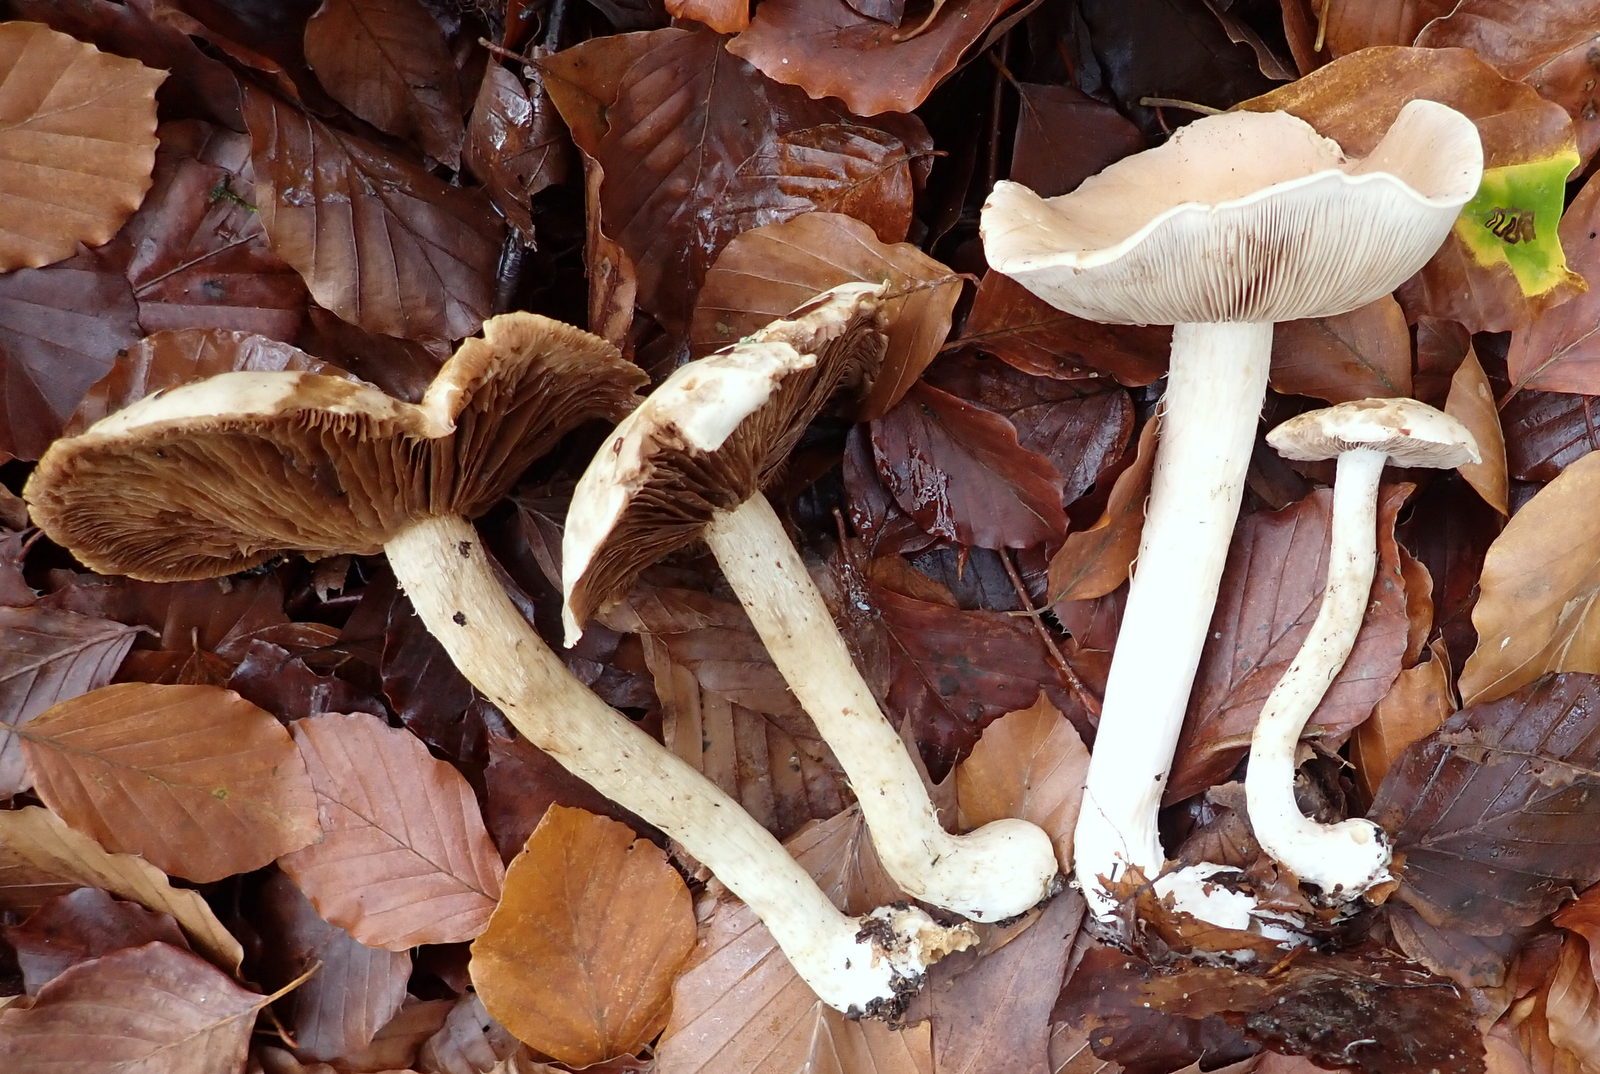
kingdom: Fungi
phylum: Basidiomycota
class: Agaricomycetes
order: Agaricales
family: Hymenogastraceae
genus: Hebeloma
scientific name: Hebeloma sinapizans
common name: ræddike-tåreblad
